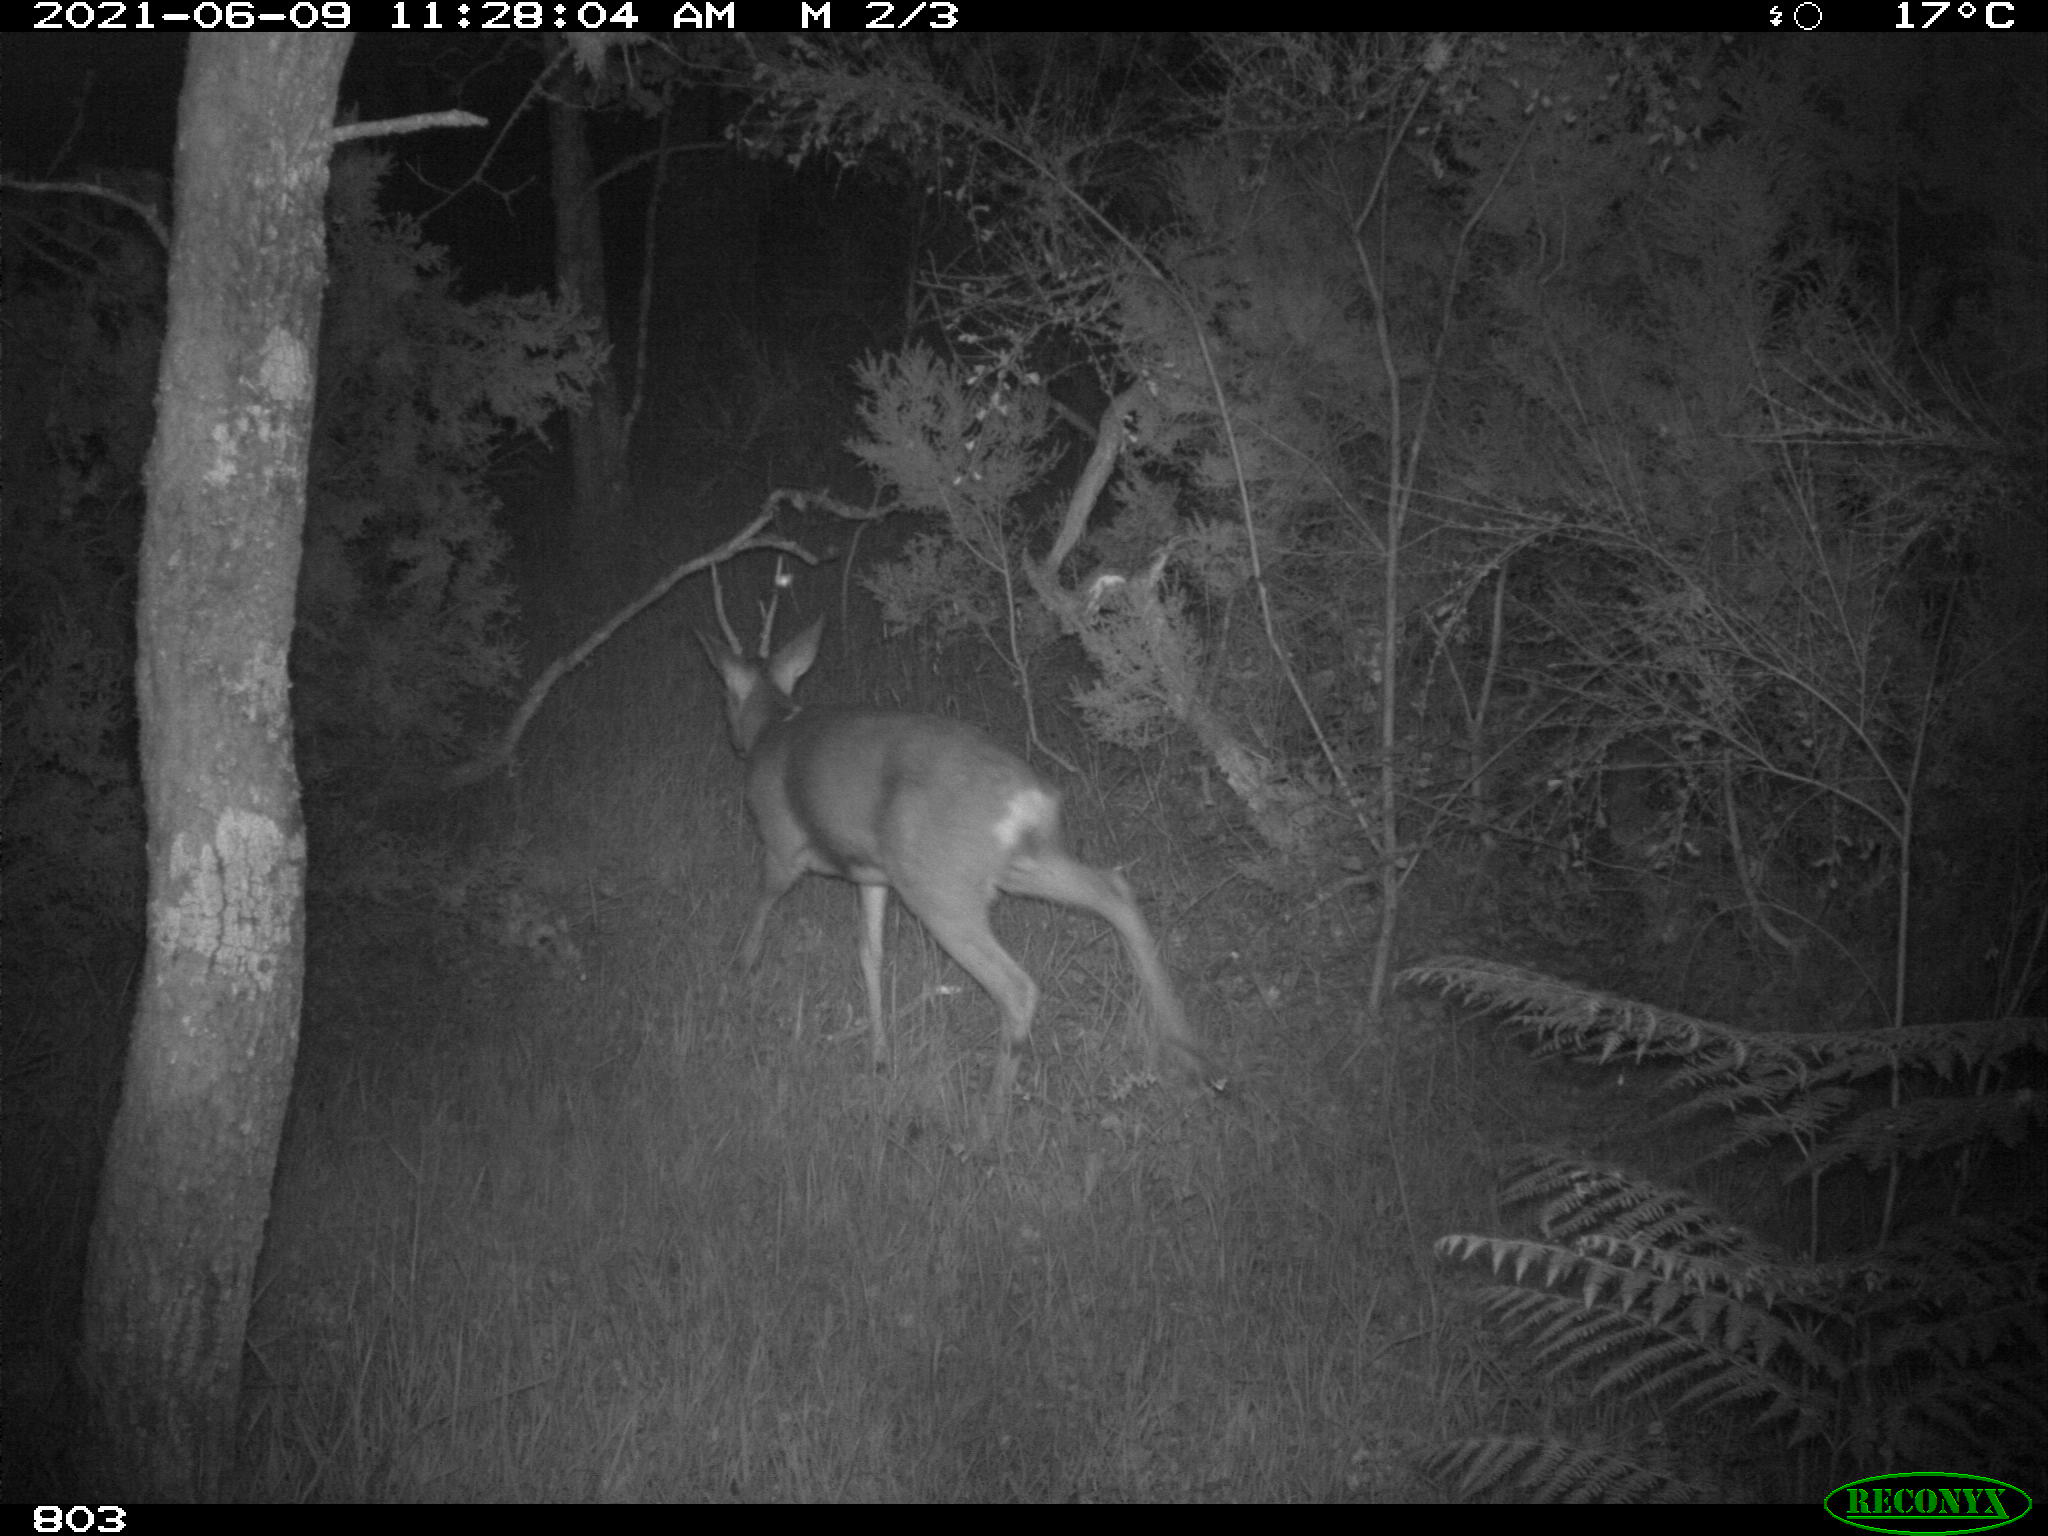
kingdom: Animalia
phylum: Chordata
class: Mammalia
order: Artiodactyla
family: Cervidae
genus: Capreolus
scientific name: Capreolus capreolus
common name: Western roe deer
